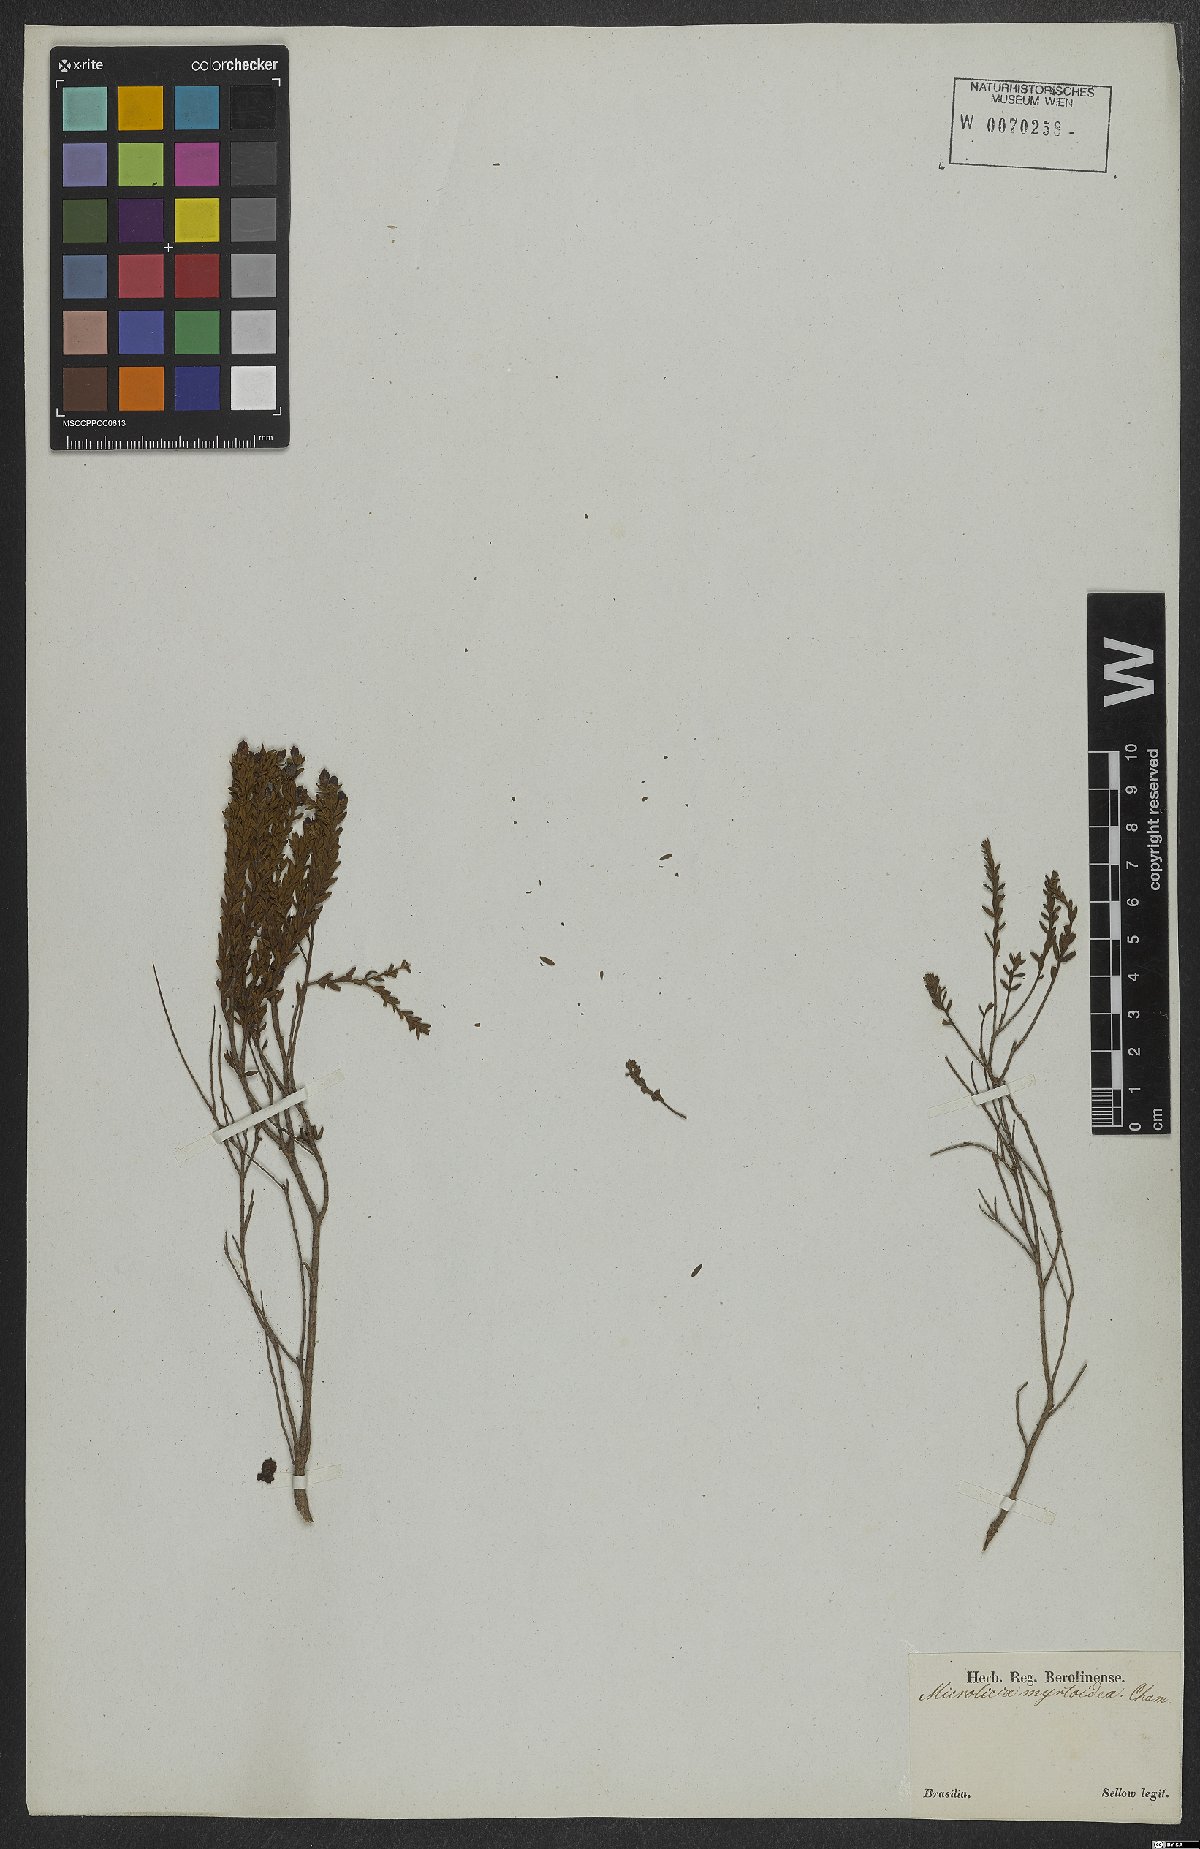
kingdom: Plantae
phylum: Tracheophyta
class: Magnoliopsida
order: Myrtales
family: Melastomataceae
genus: Microlicia
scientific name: Microlicia myrtoidea
